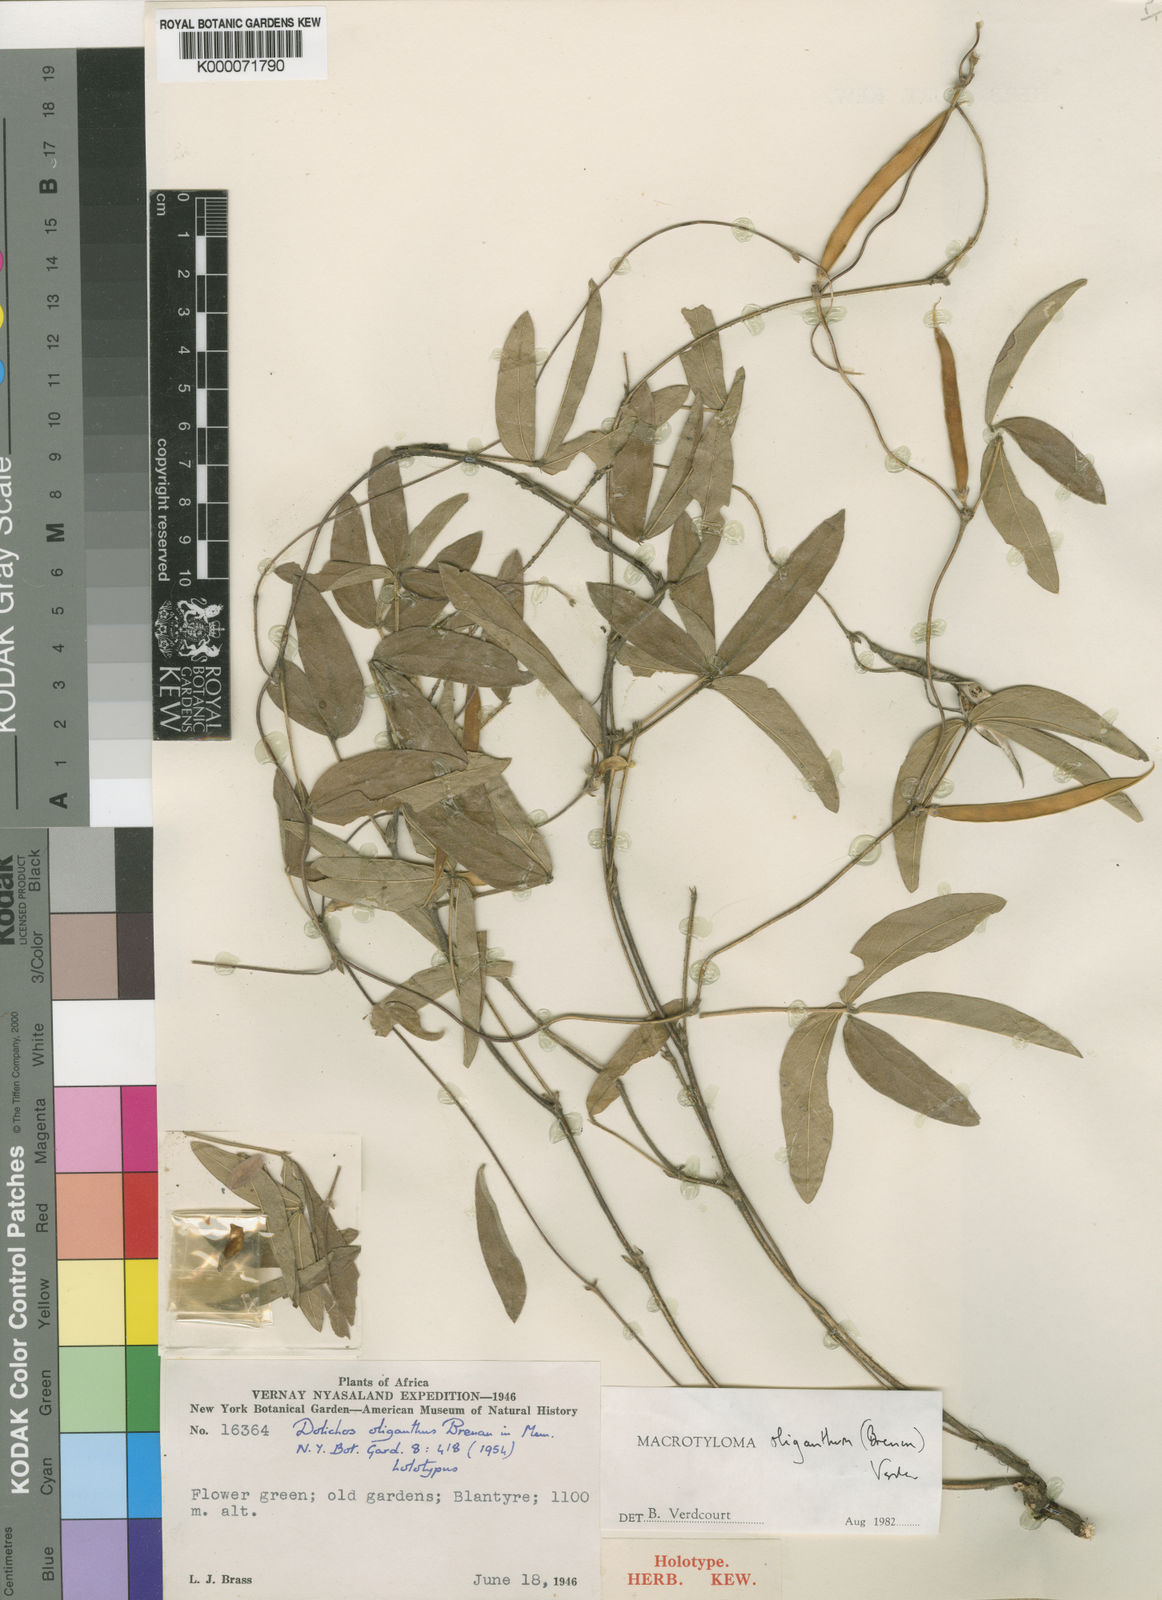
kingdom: Plantae
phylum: Tracheophyta
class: Magnoliopsida
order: Fabales
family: Fabaceae
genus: Macrotyloma
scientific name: Macrotyloma oliganthum
